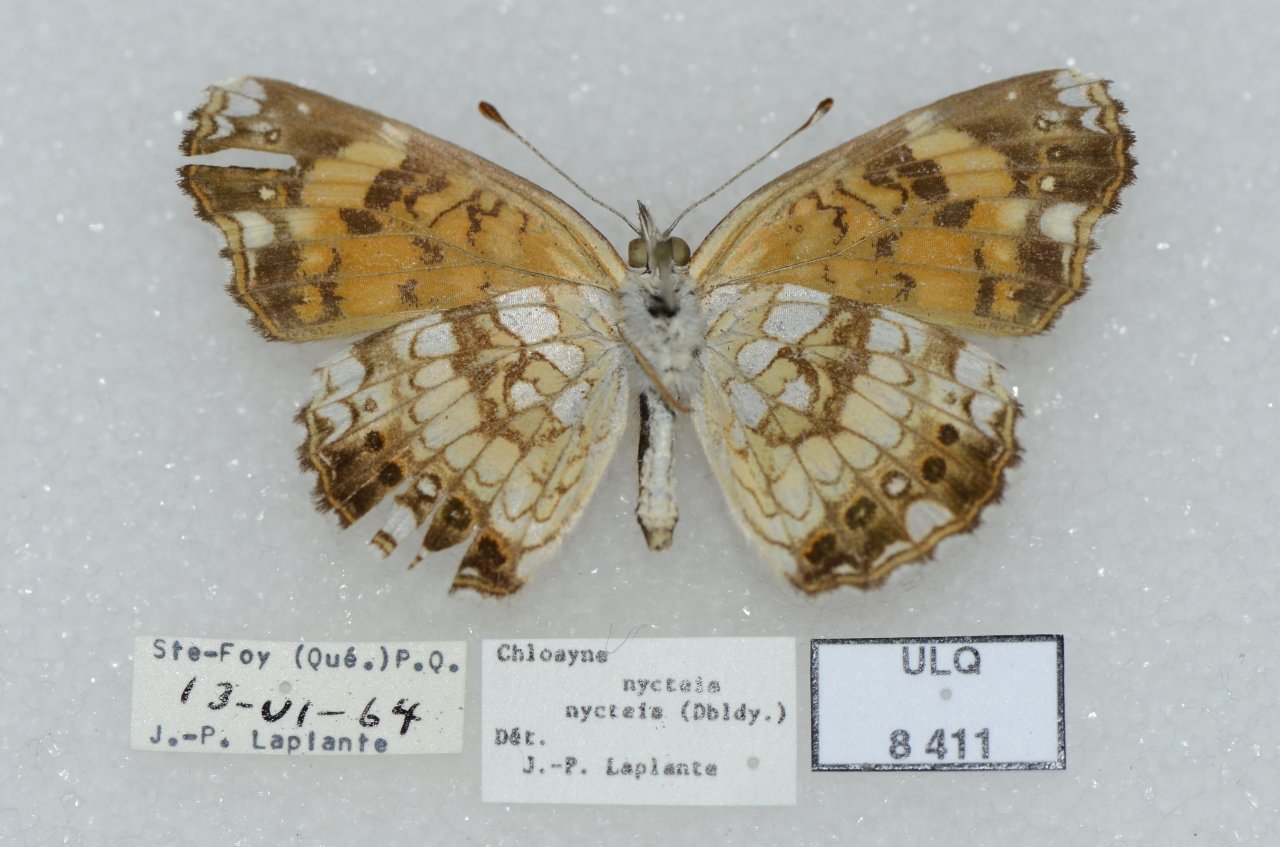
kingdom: Animalia
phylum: Arthropoda
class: Insecta
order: Lepidoptera
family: Nymphalidae
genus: Chlosyne
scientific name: Chlosyne nycteis
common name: Silvery Checkerspot
